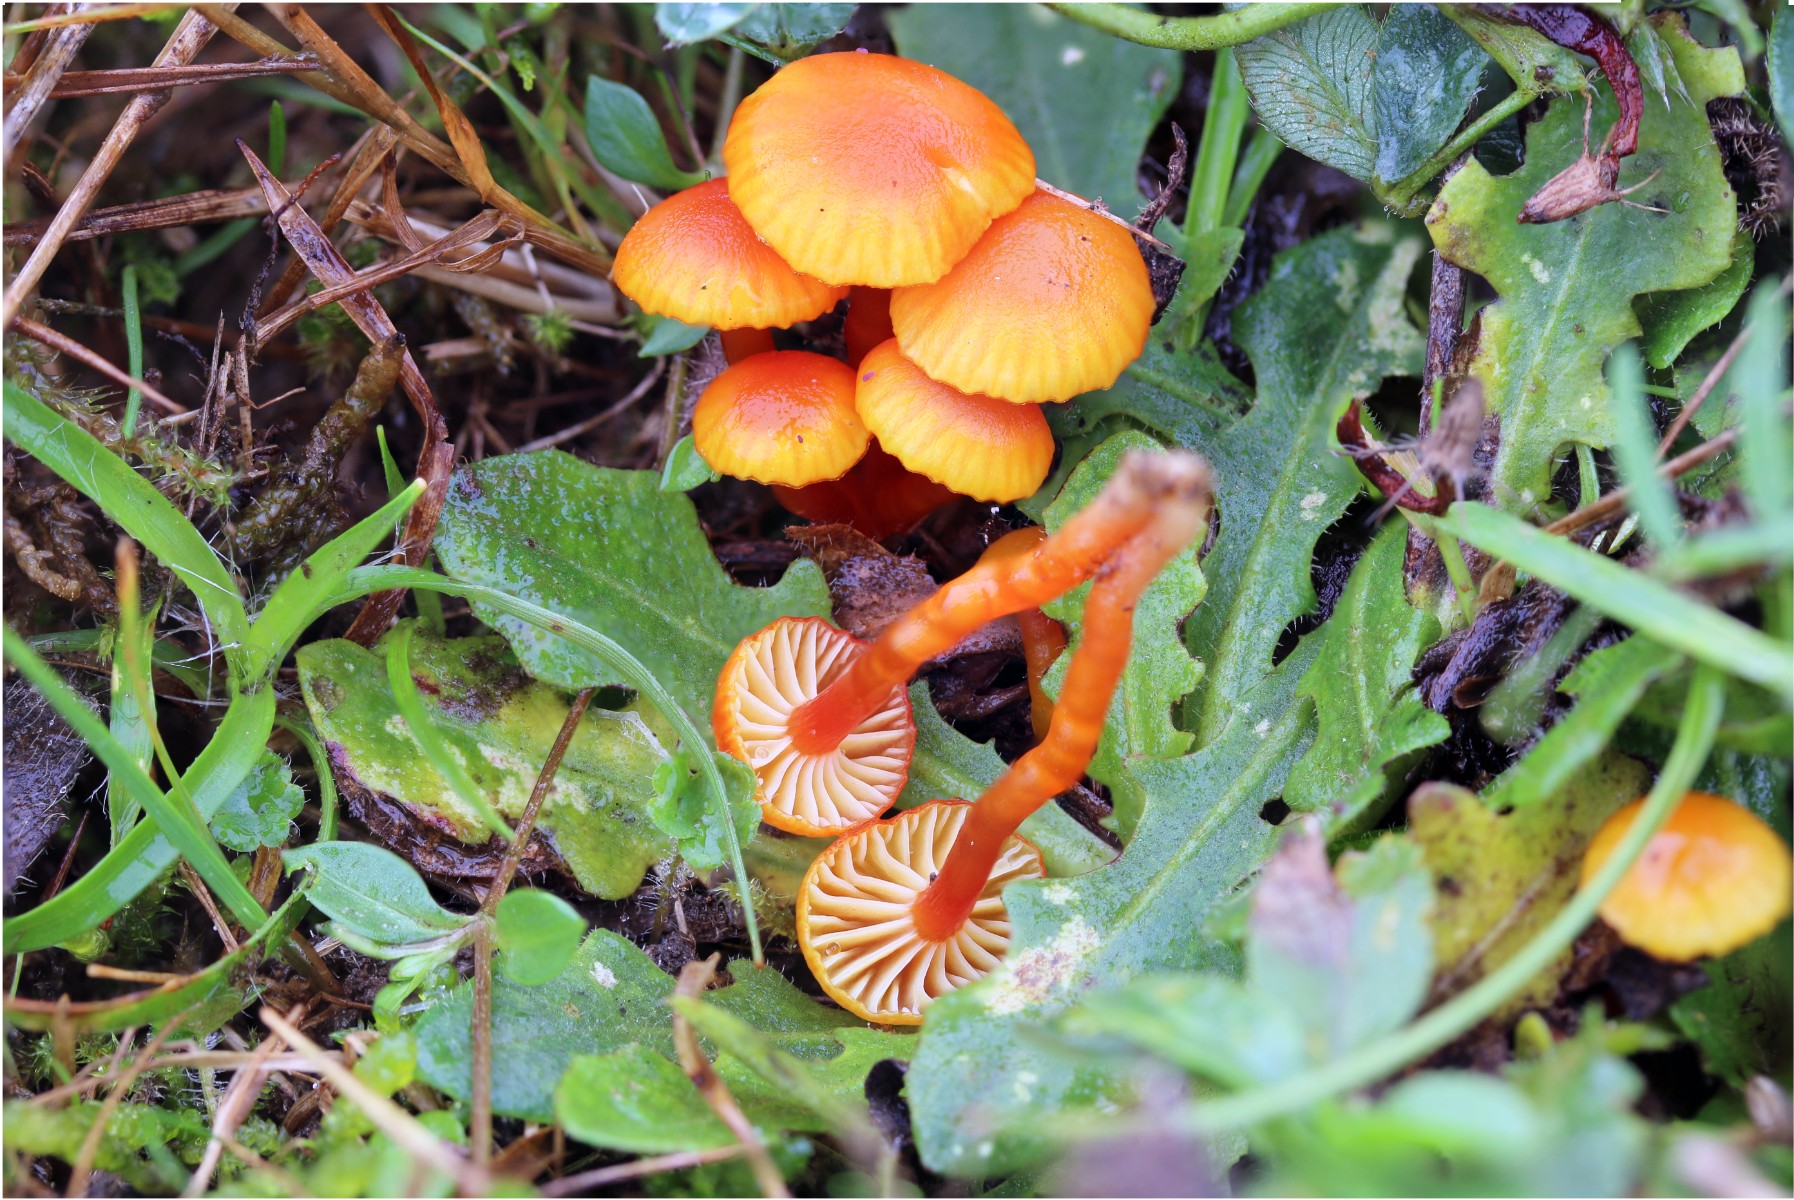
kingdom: Fungi
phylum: Basidiomycota
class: Agaricomycetes
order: Agaricales
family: Hygrophoraceae
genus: Hygrocybe
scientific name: Hygrocybe insipida
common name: liden vokshat
